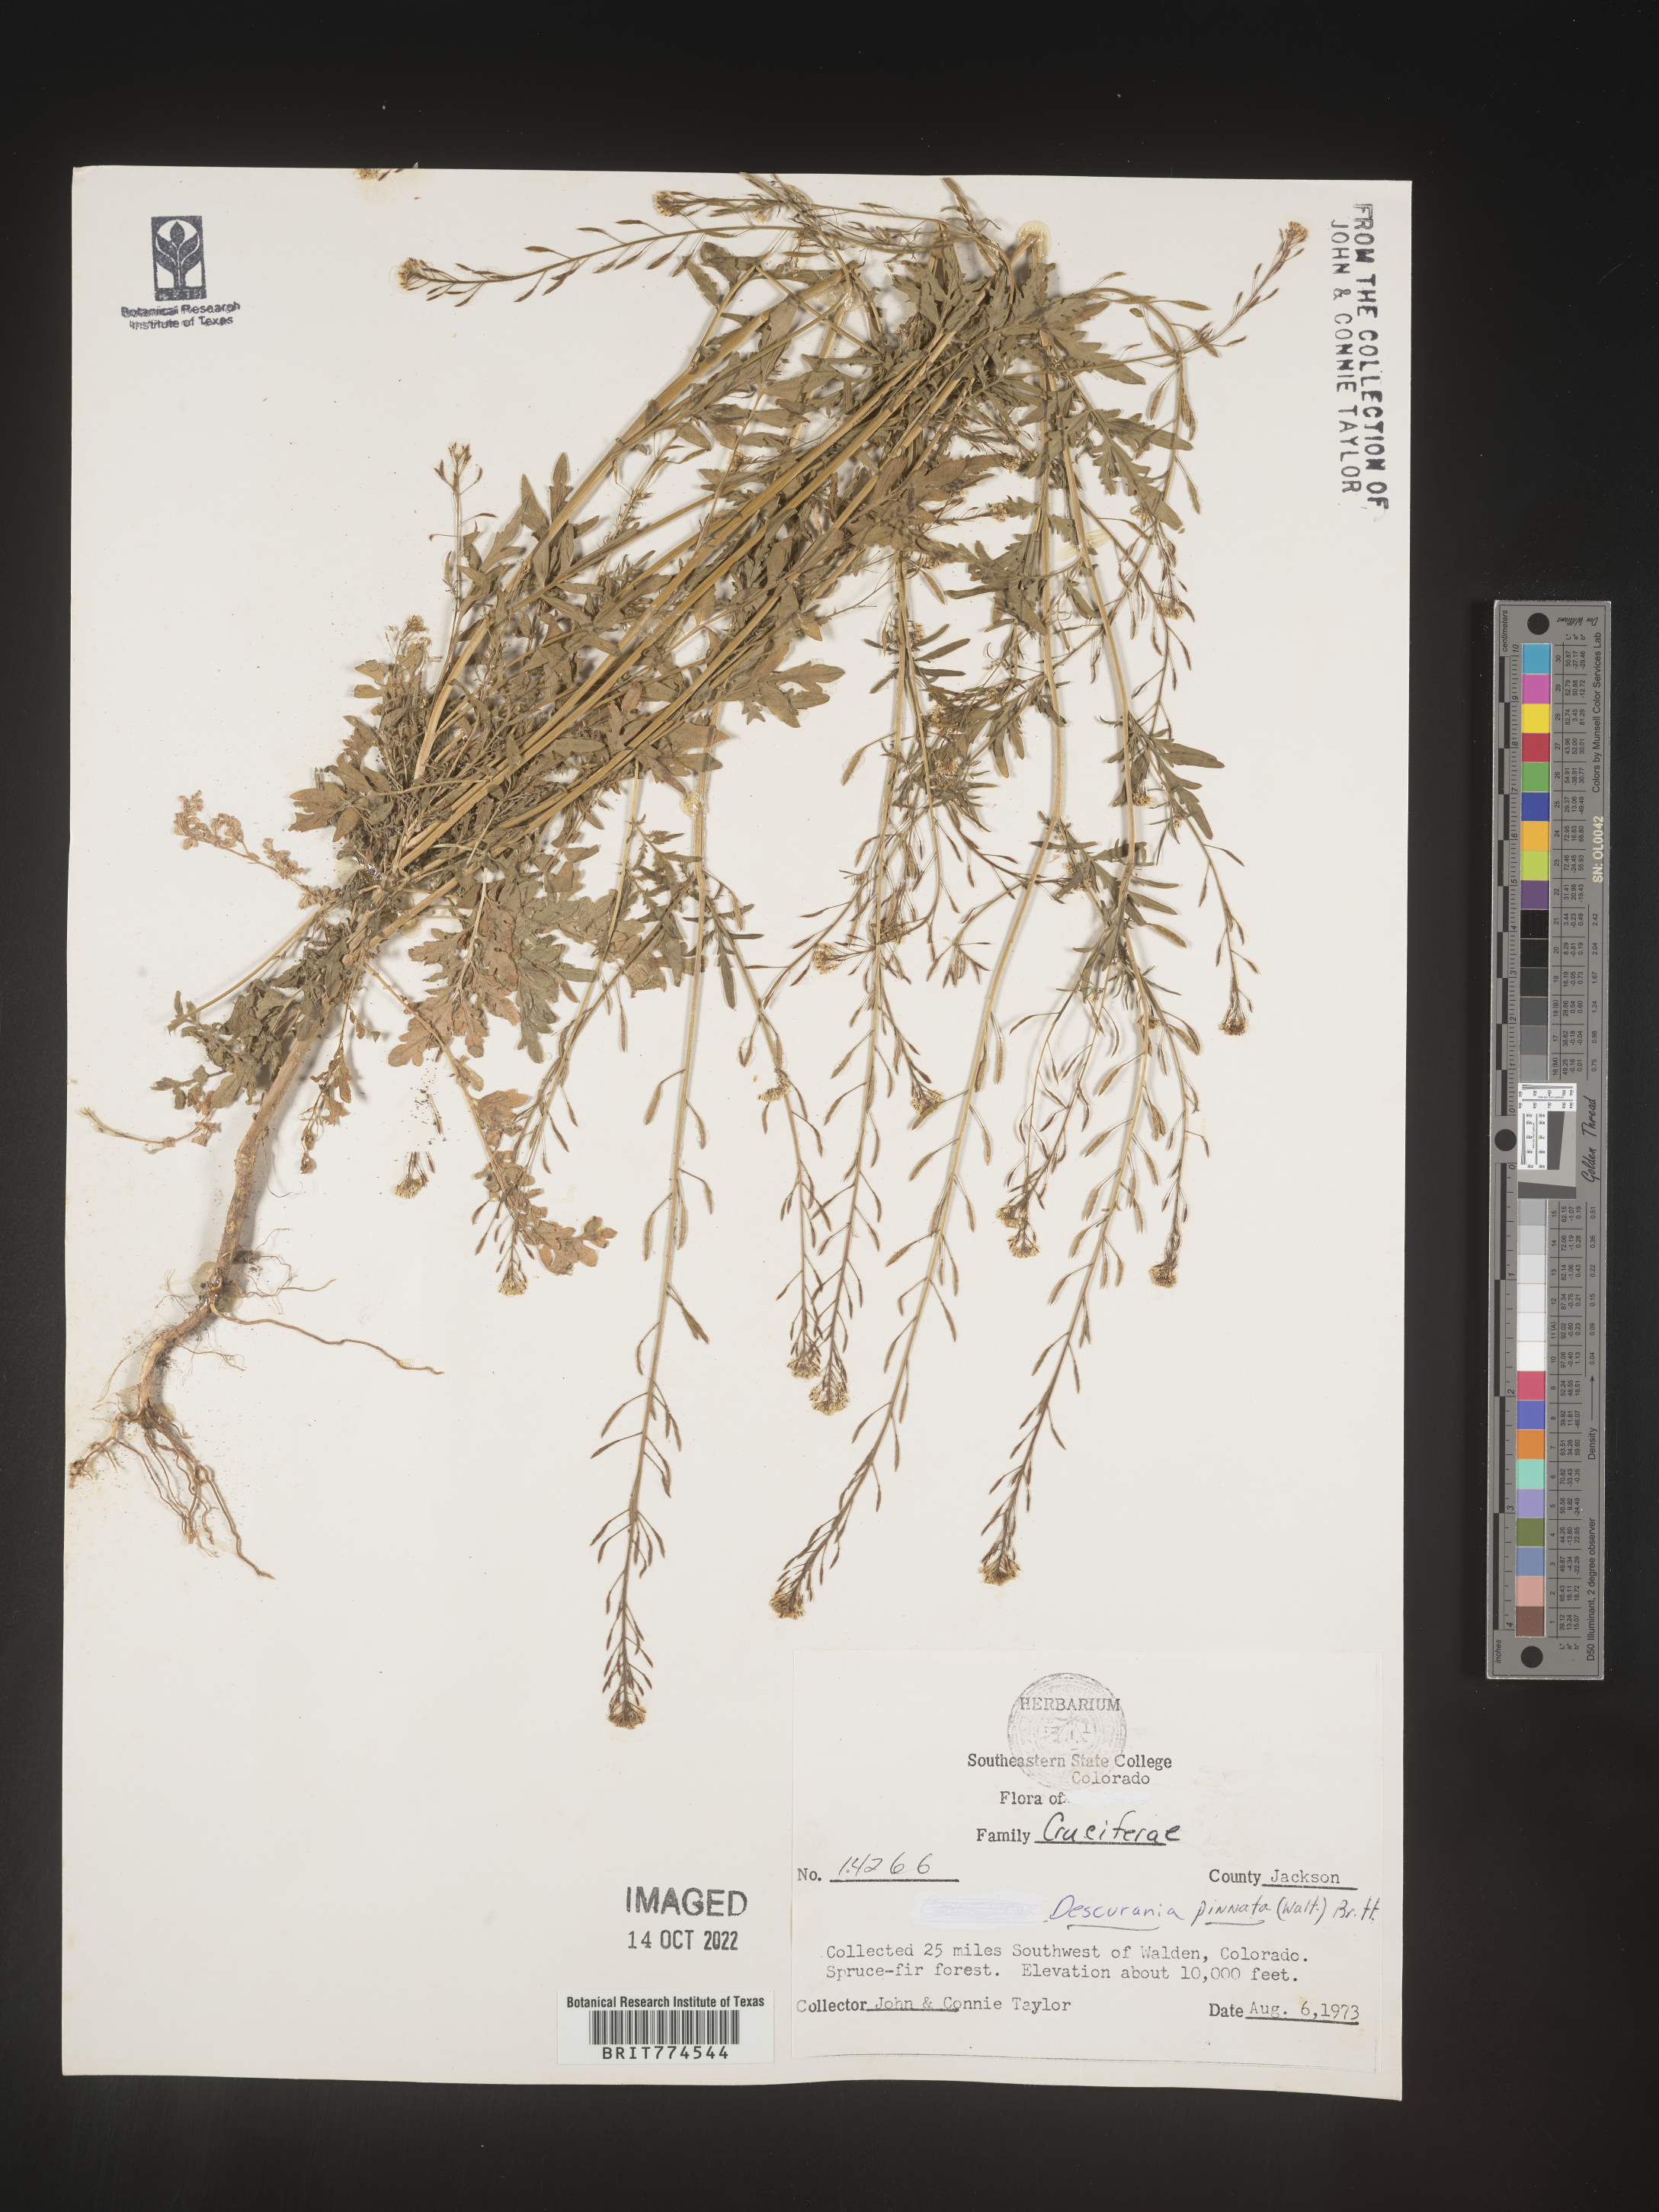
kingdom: Plantae
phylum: Tracheophyta
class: Magnoliopsida
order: Brassicales
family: Brassicaceae
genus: Descurainia
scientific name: Descurainia pinnata
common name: Western tansy mustard
